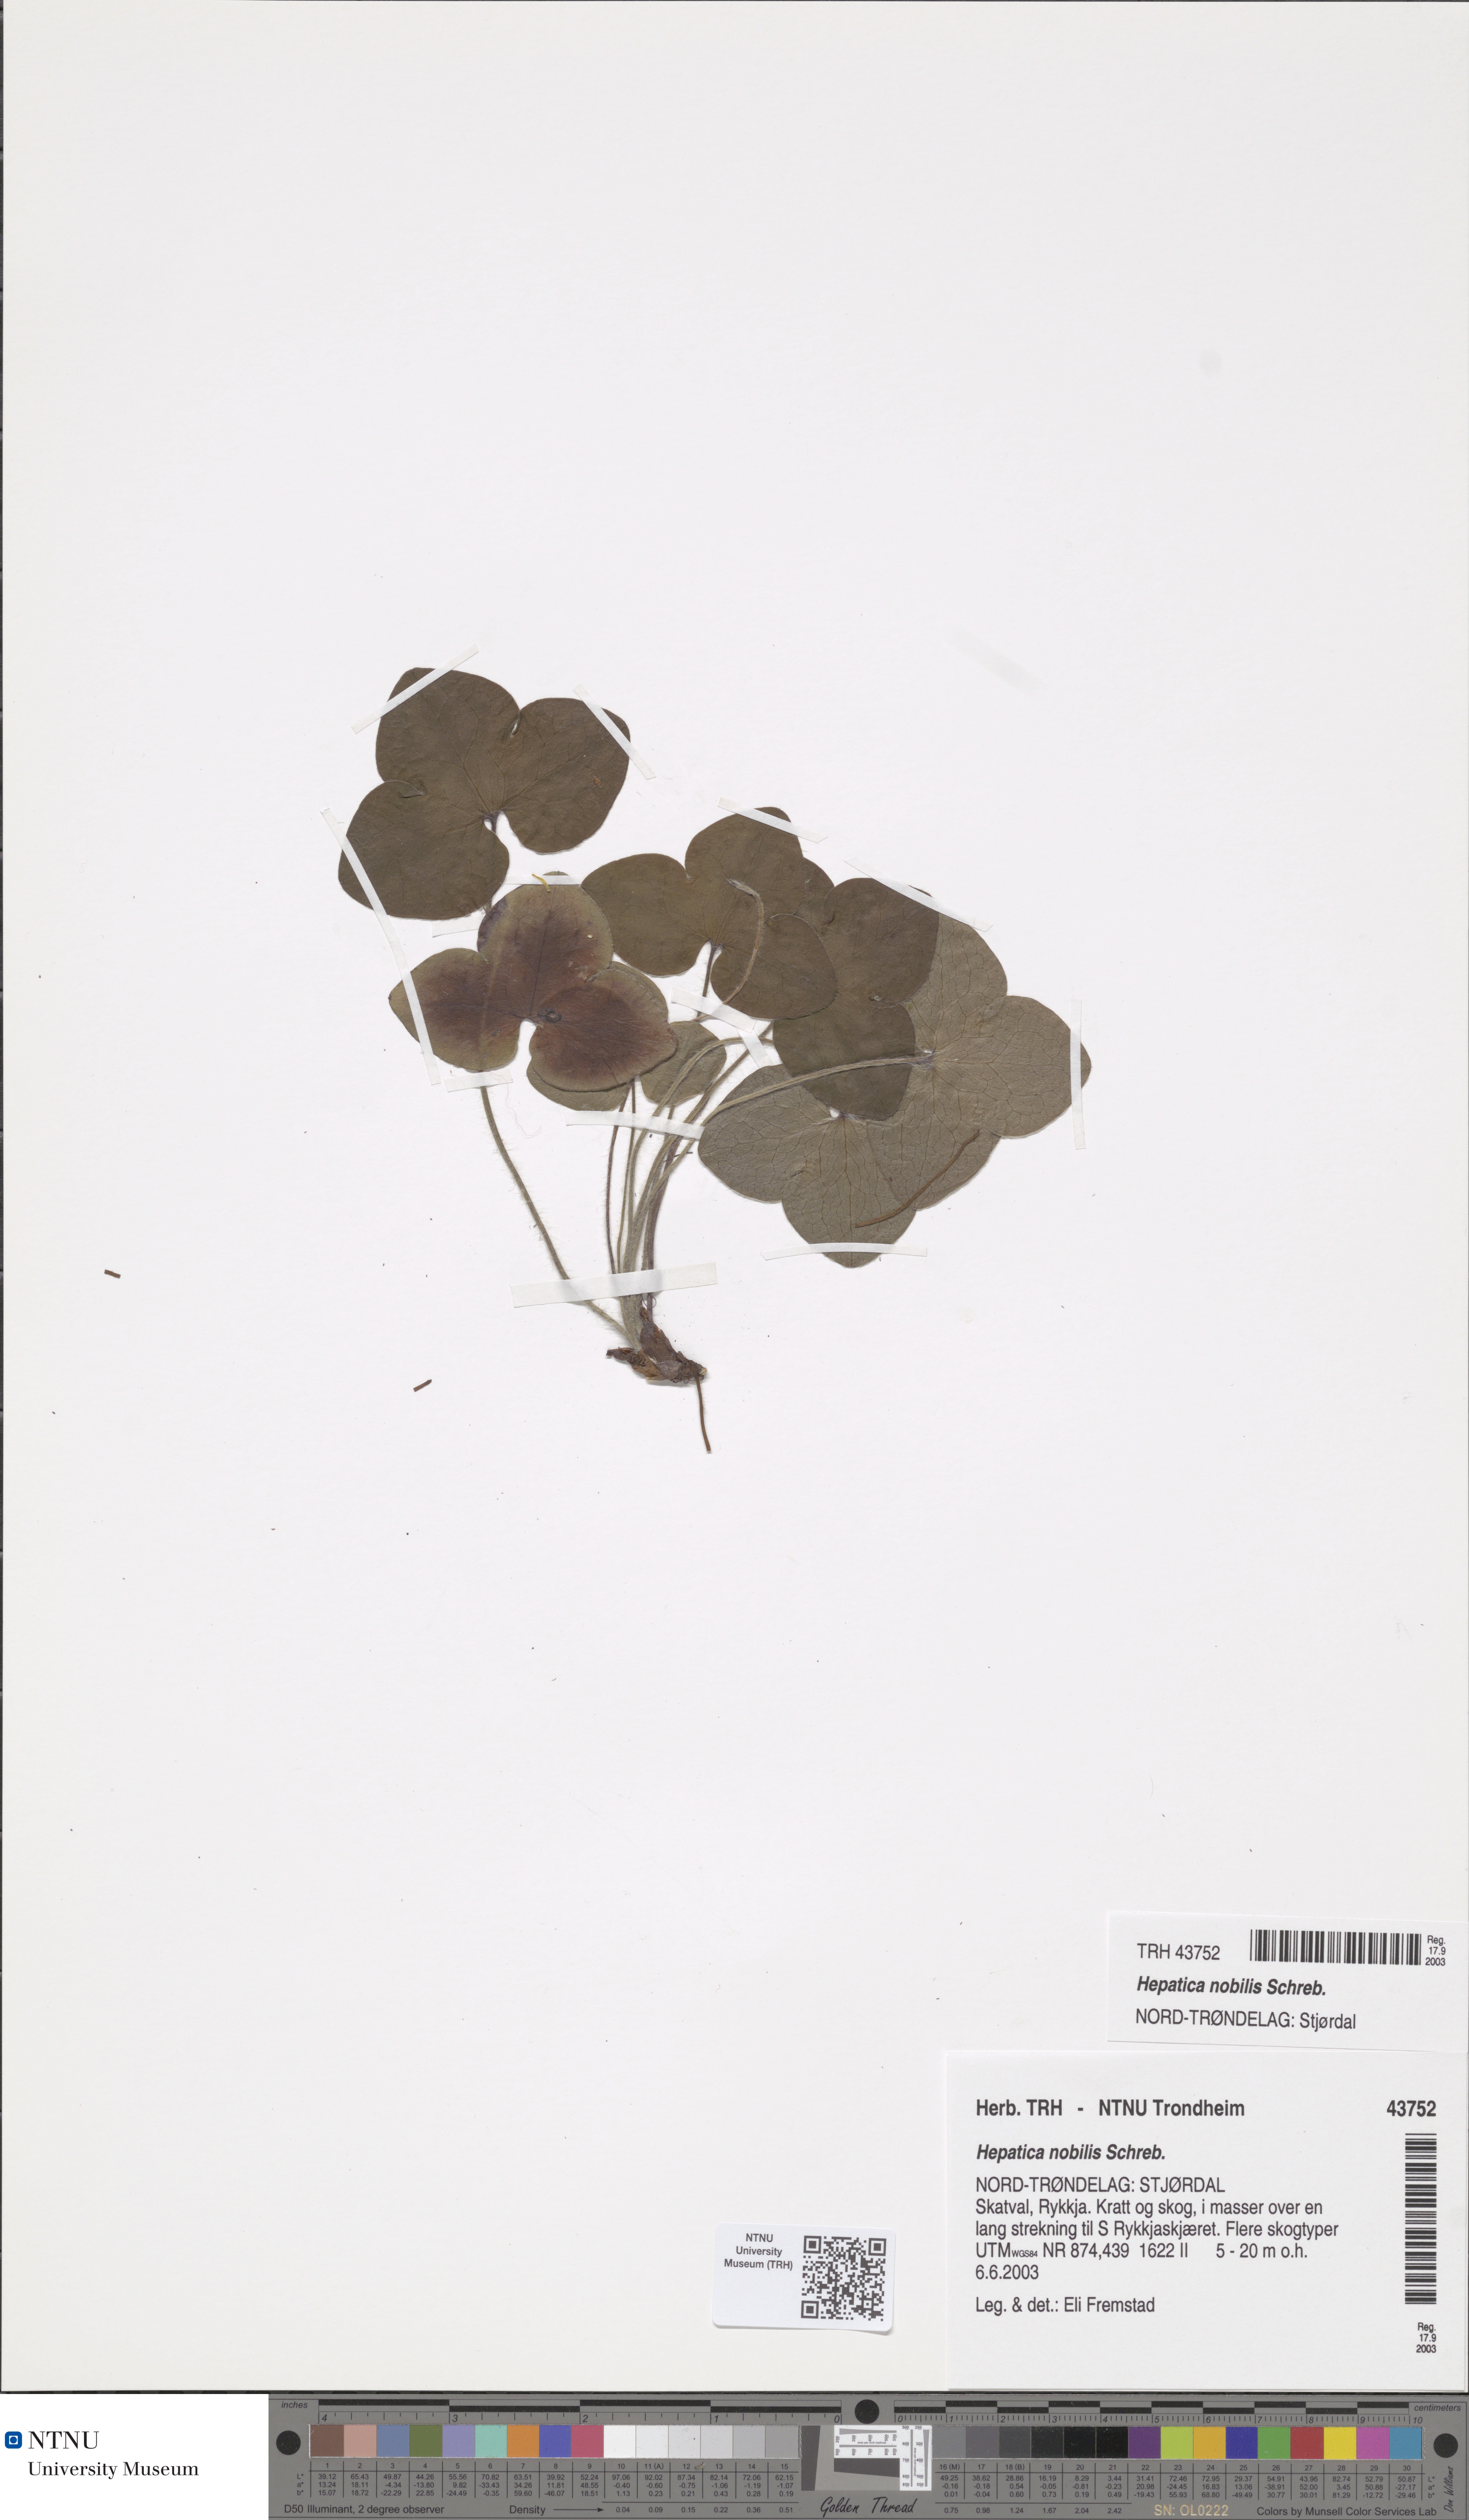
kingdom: Plantae
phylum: Tracheophyta
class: Magnoliopsida
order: Ranunculales
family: Ranunculaceae
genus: Hepatica
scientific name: Hepatica nobilis
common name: Liverleaf
